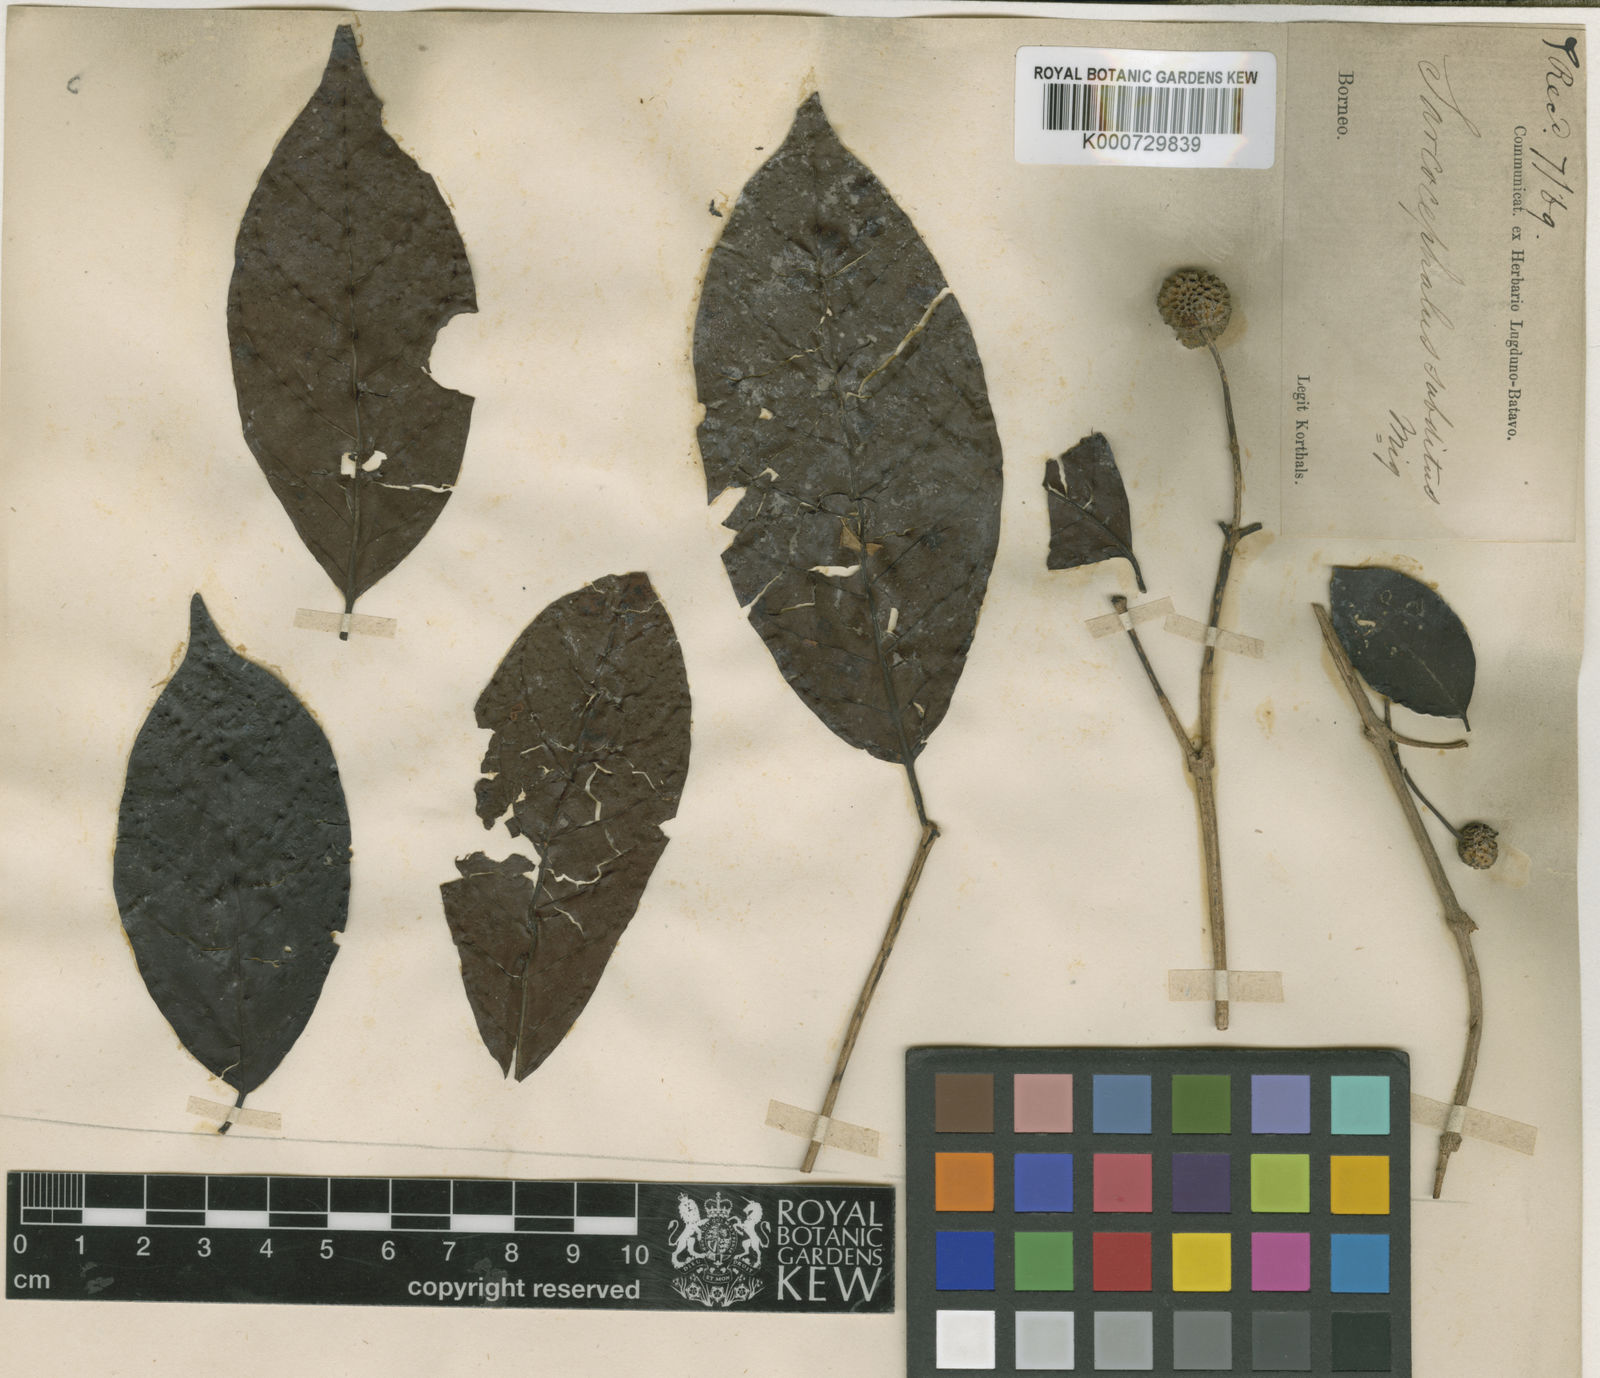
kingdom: Plantae
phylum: Tracheophyta
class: Magnoliopsida
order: Gentianales
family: Rubiaceae
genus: Nauclea
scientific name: Nauclea subdita
